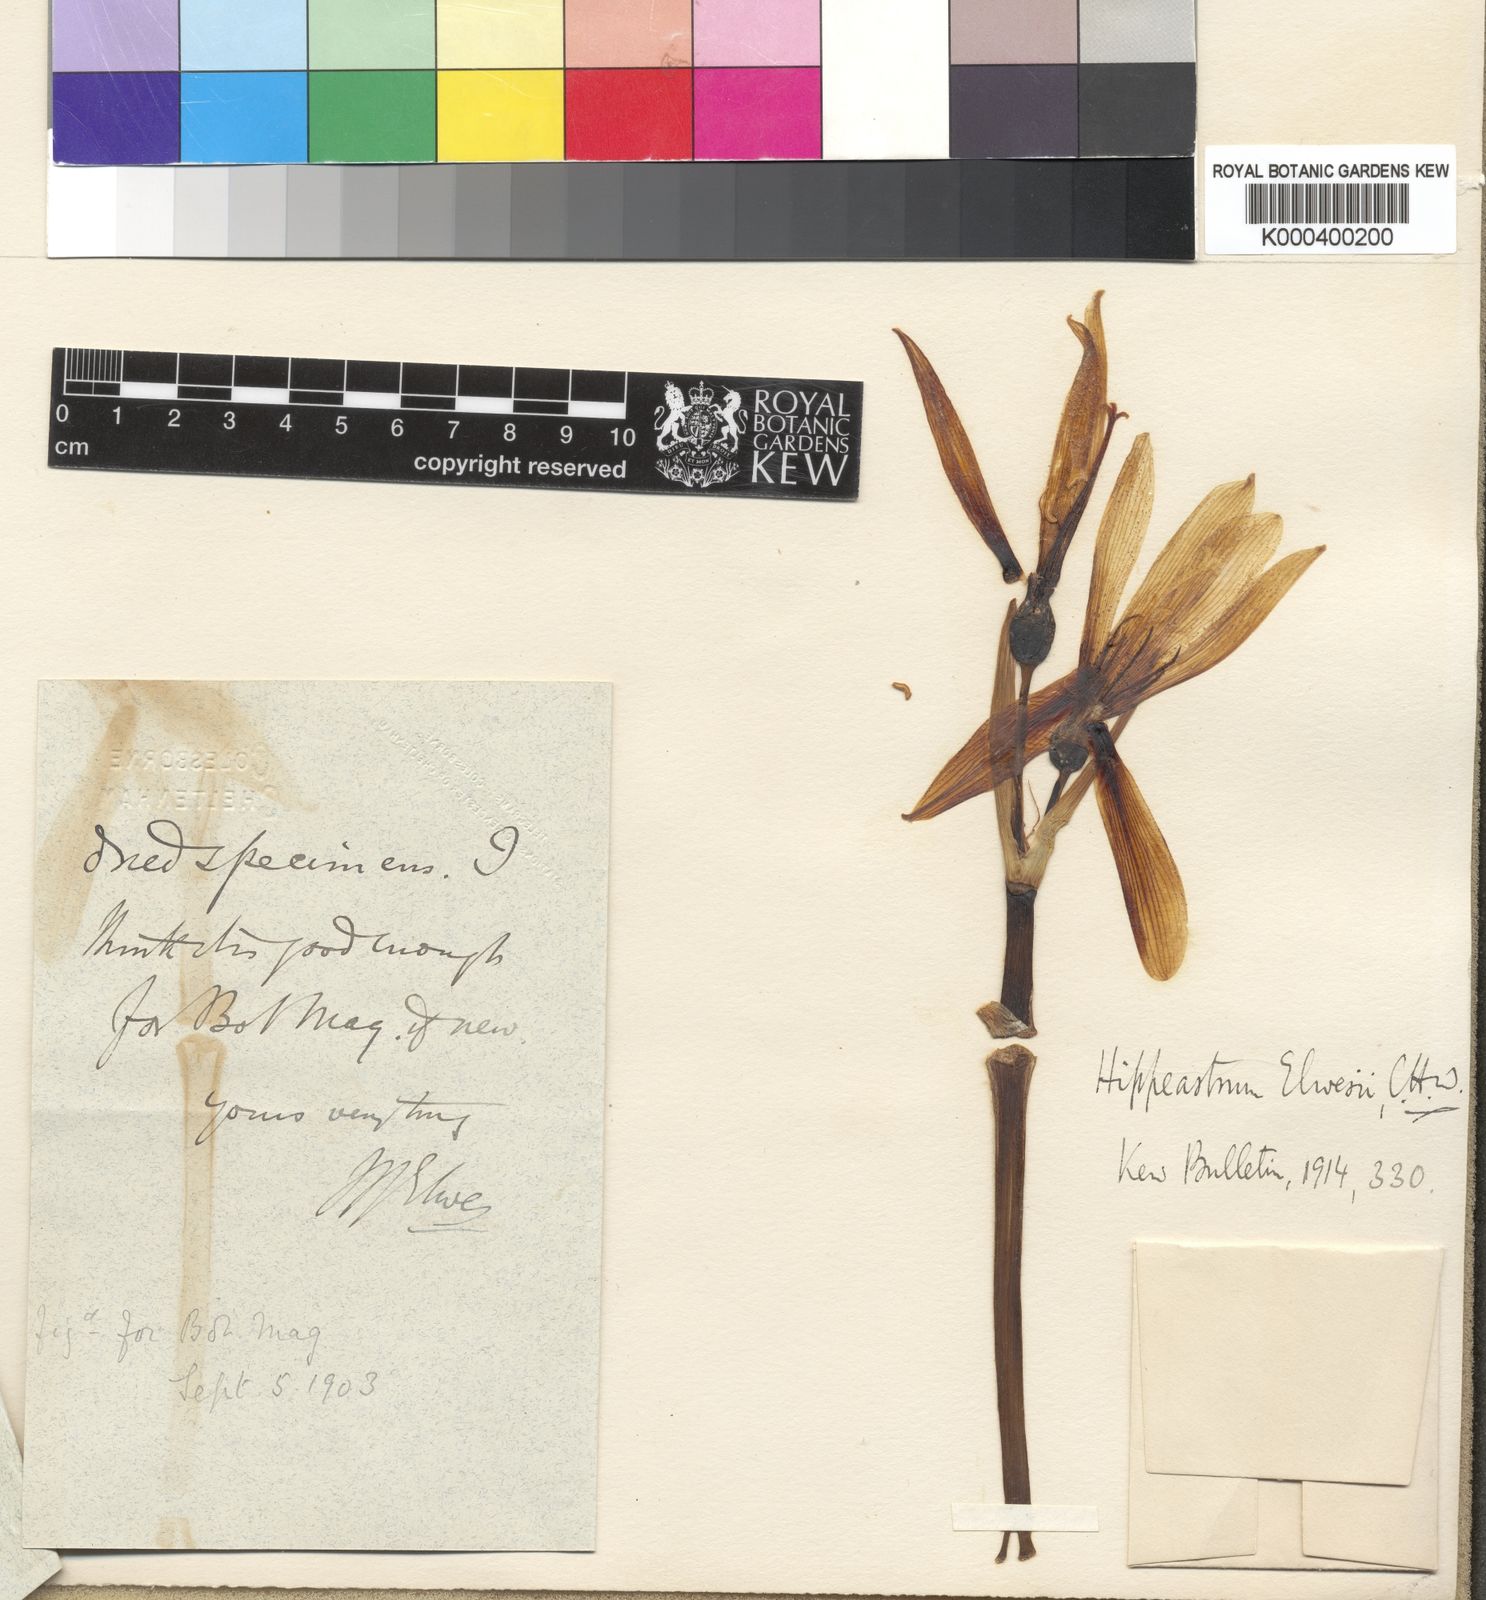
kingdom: Plantae
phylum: Tracheophyta
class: Liliopsida
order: Asparagales
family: Amaryllidaceae
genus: Zephyranthes
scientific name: Zephyranthes elwesii
